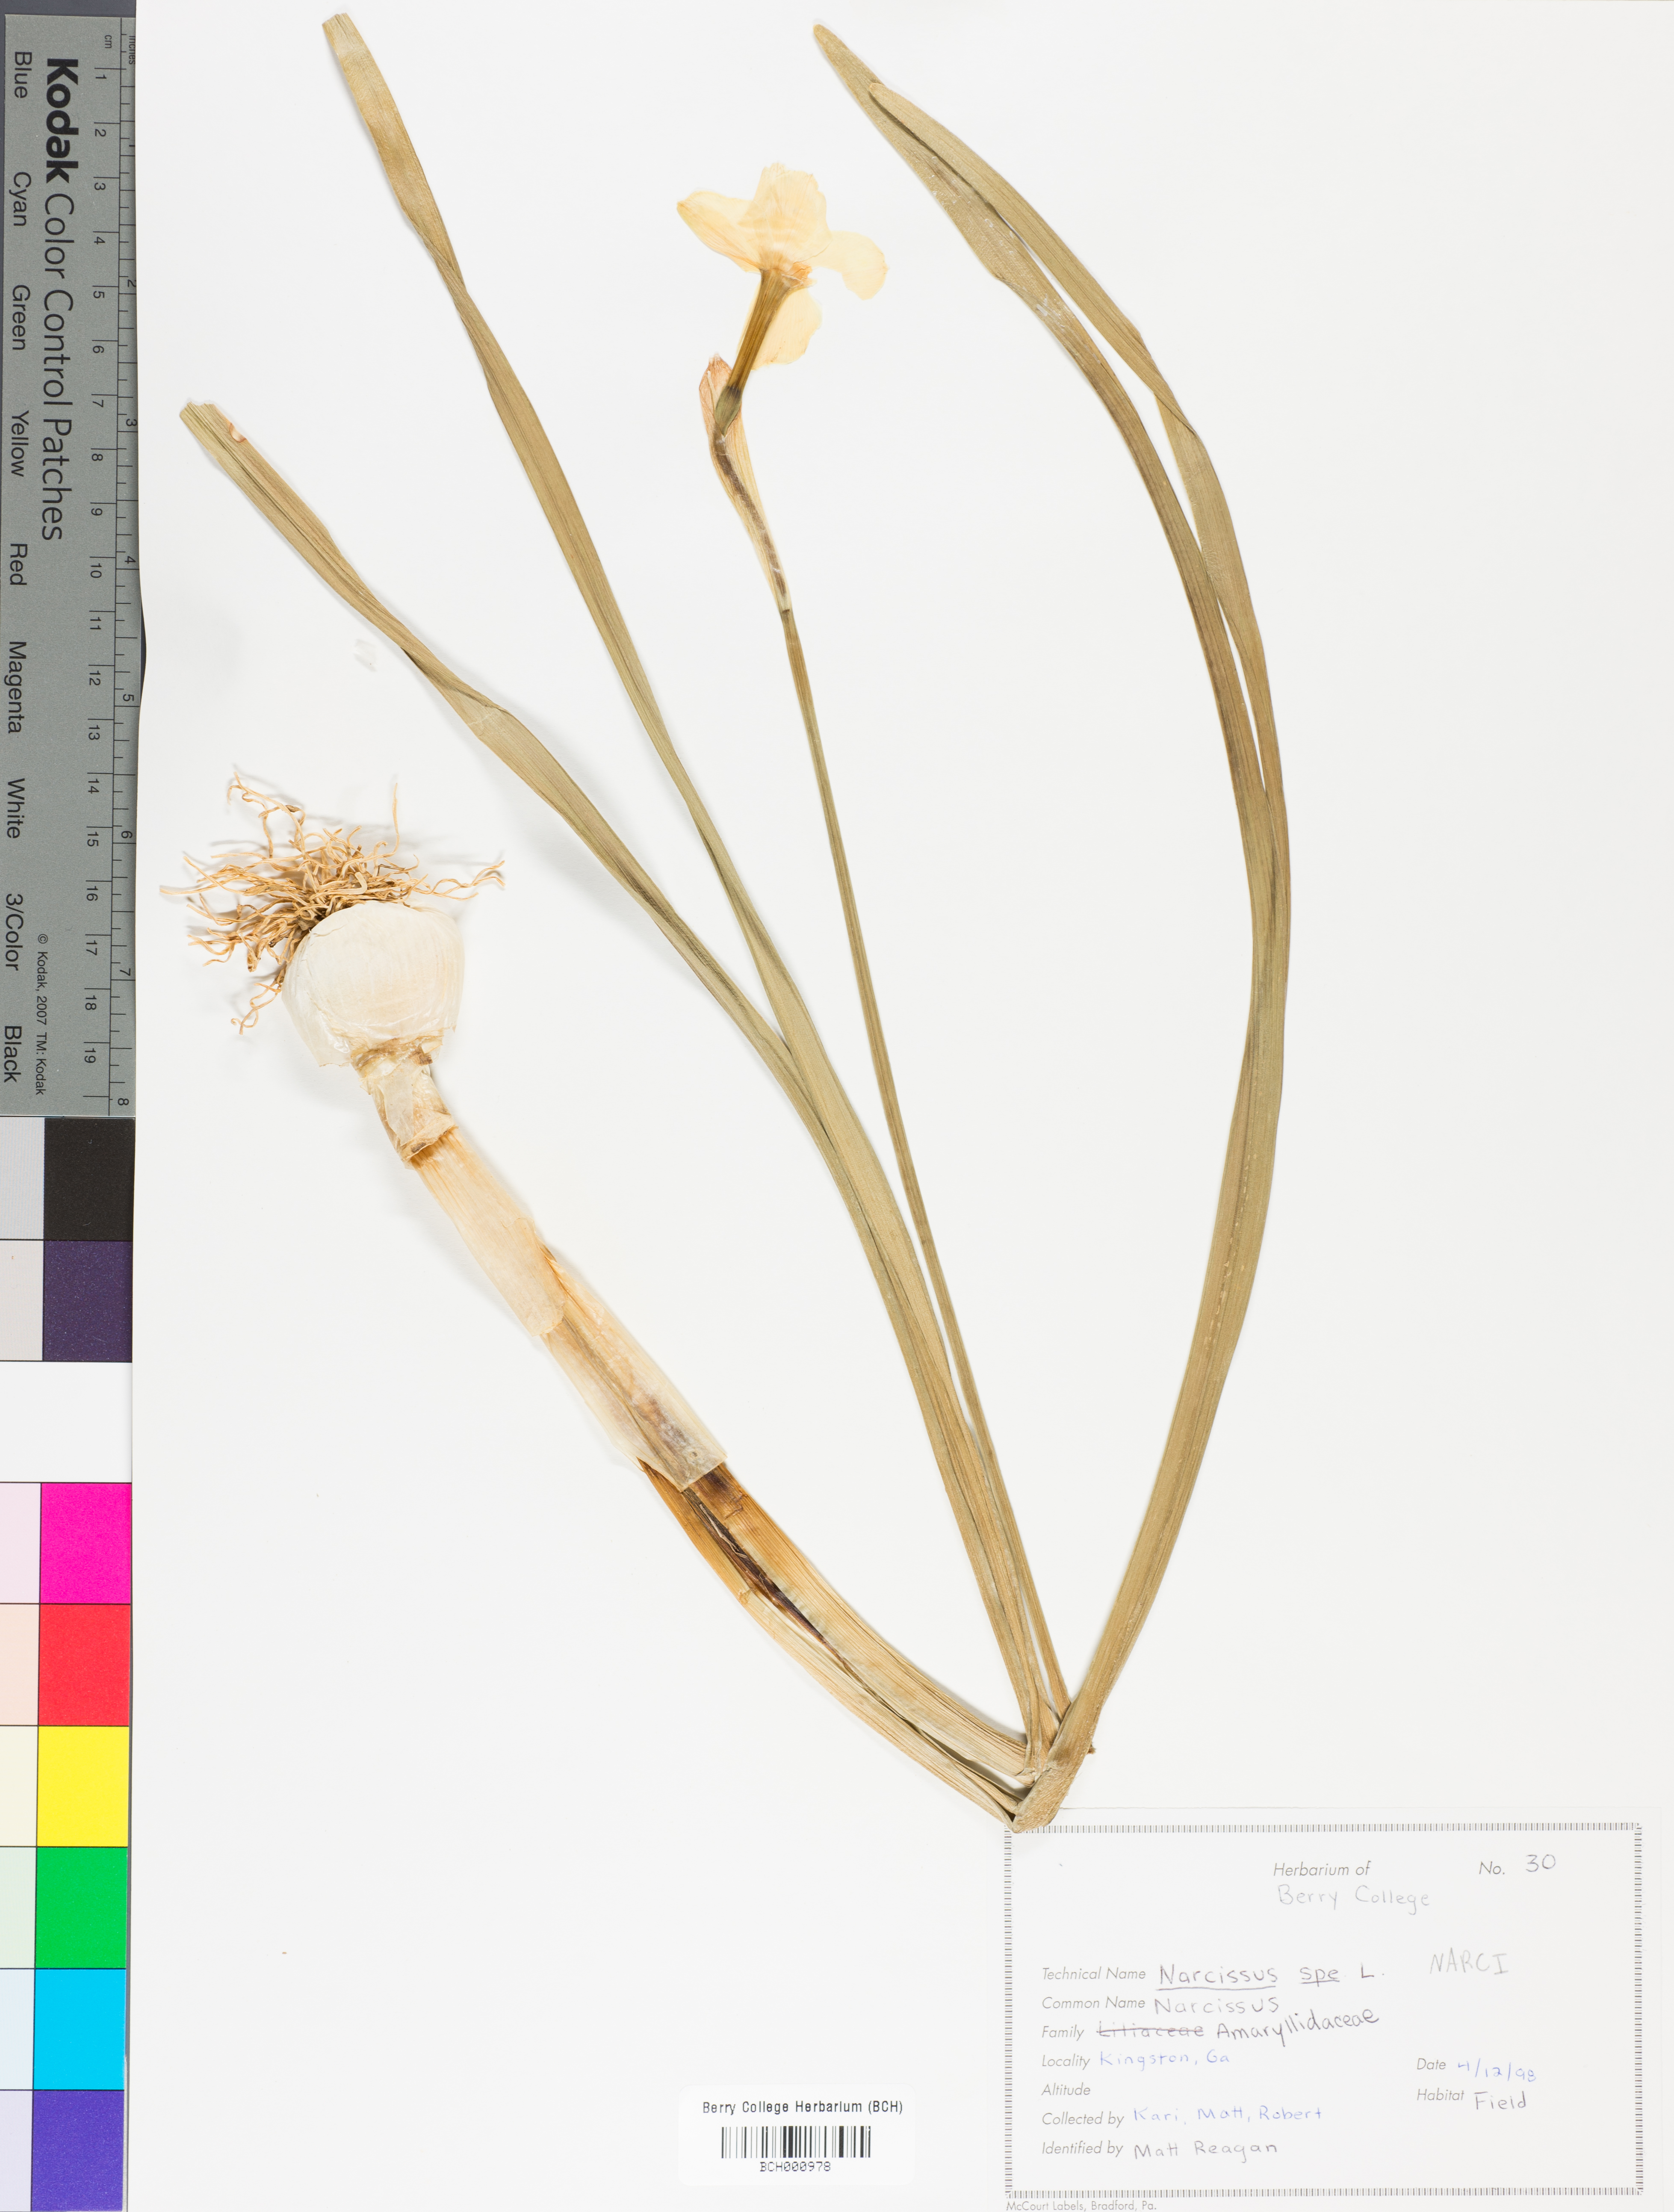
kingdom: Plantae
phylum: Tracheophyta
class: Liliopsida
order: Asparagales
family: Amaryllidaceae
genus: Narcissus
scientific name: Narcissus
